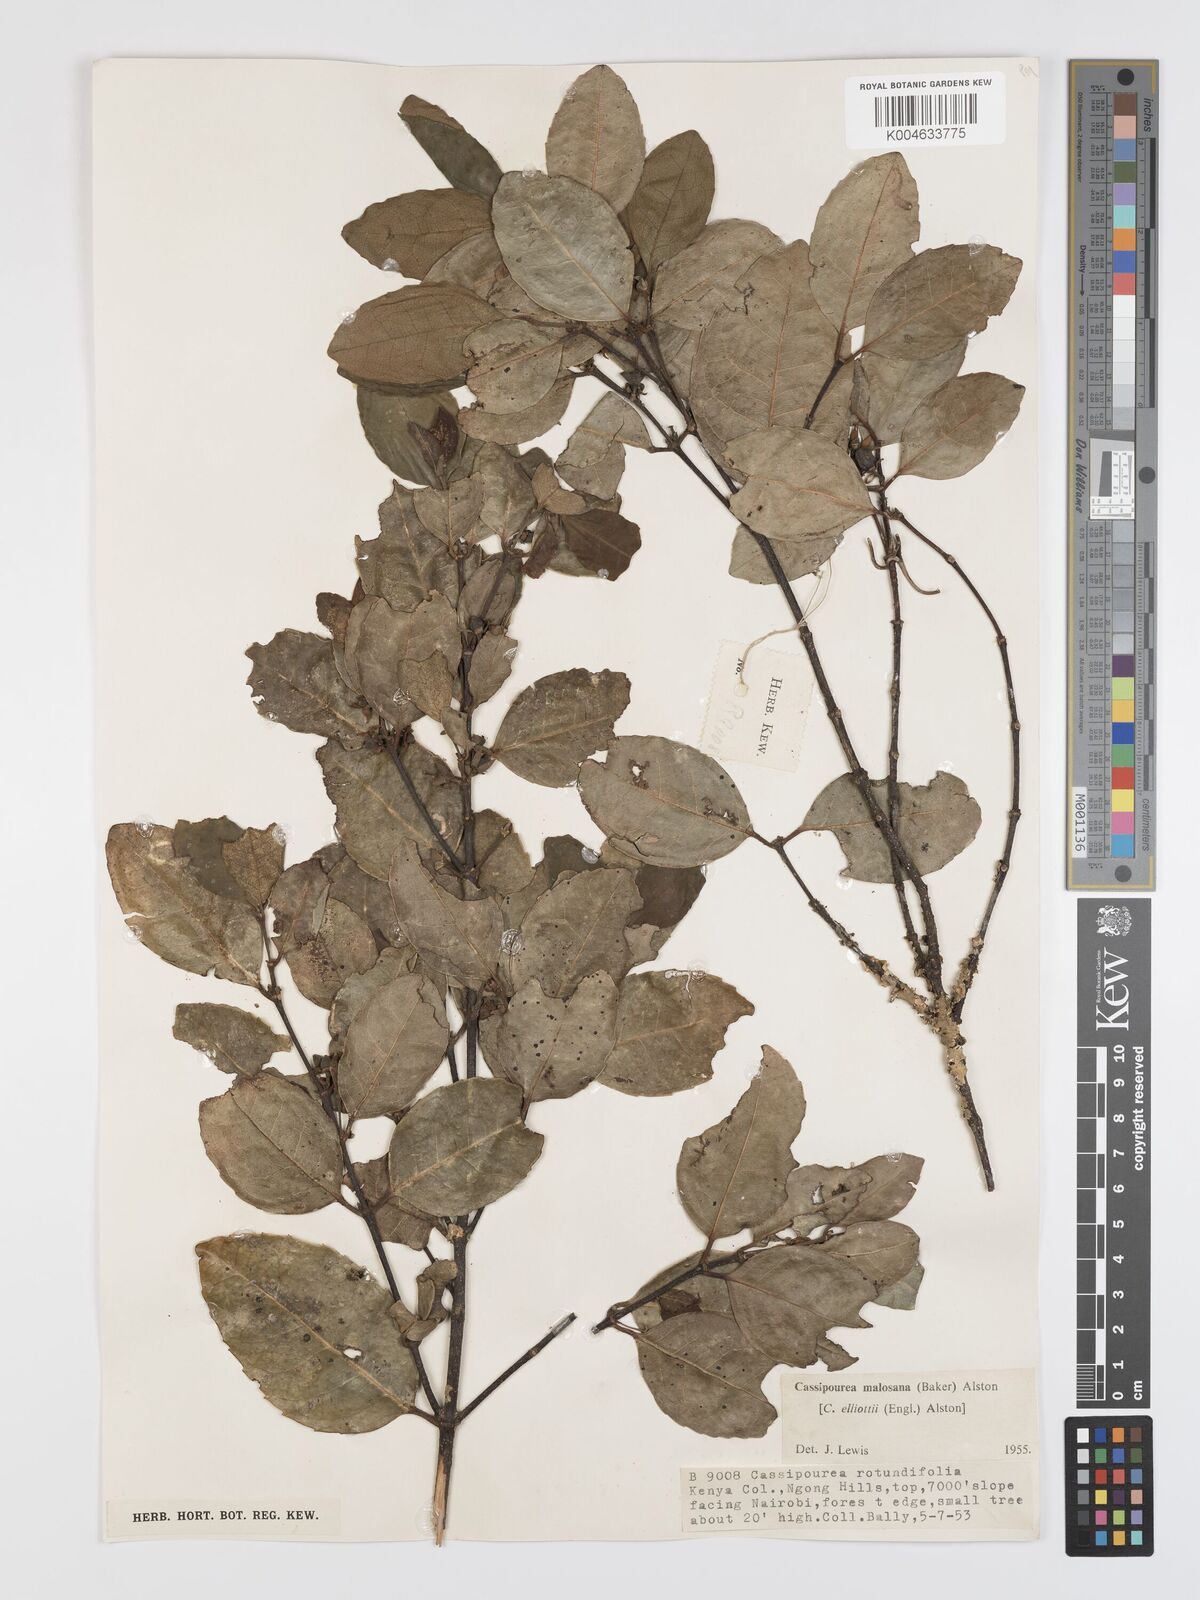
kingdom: Plantae
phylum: Tracheophyta
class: Magnoliopsida
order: Malpighiales
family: Rhizophoraceae
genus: Cassipourea
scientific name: Cassipourea malosana
